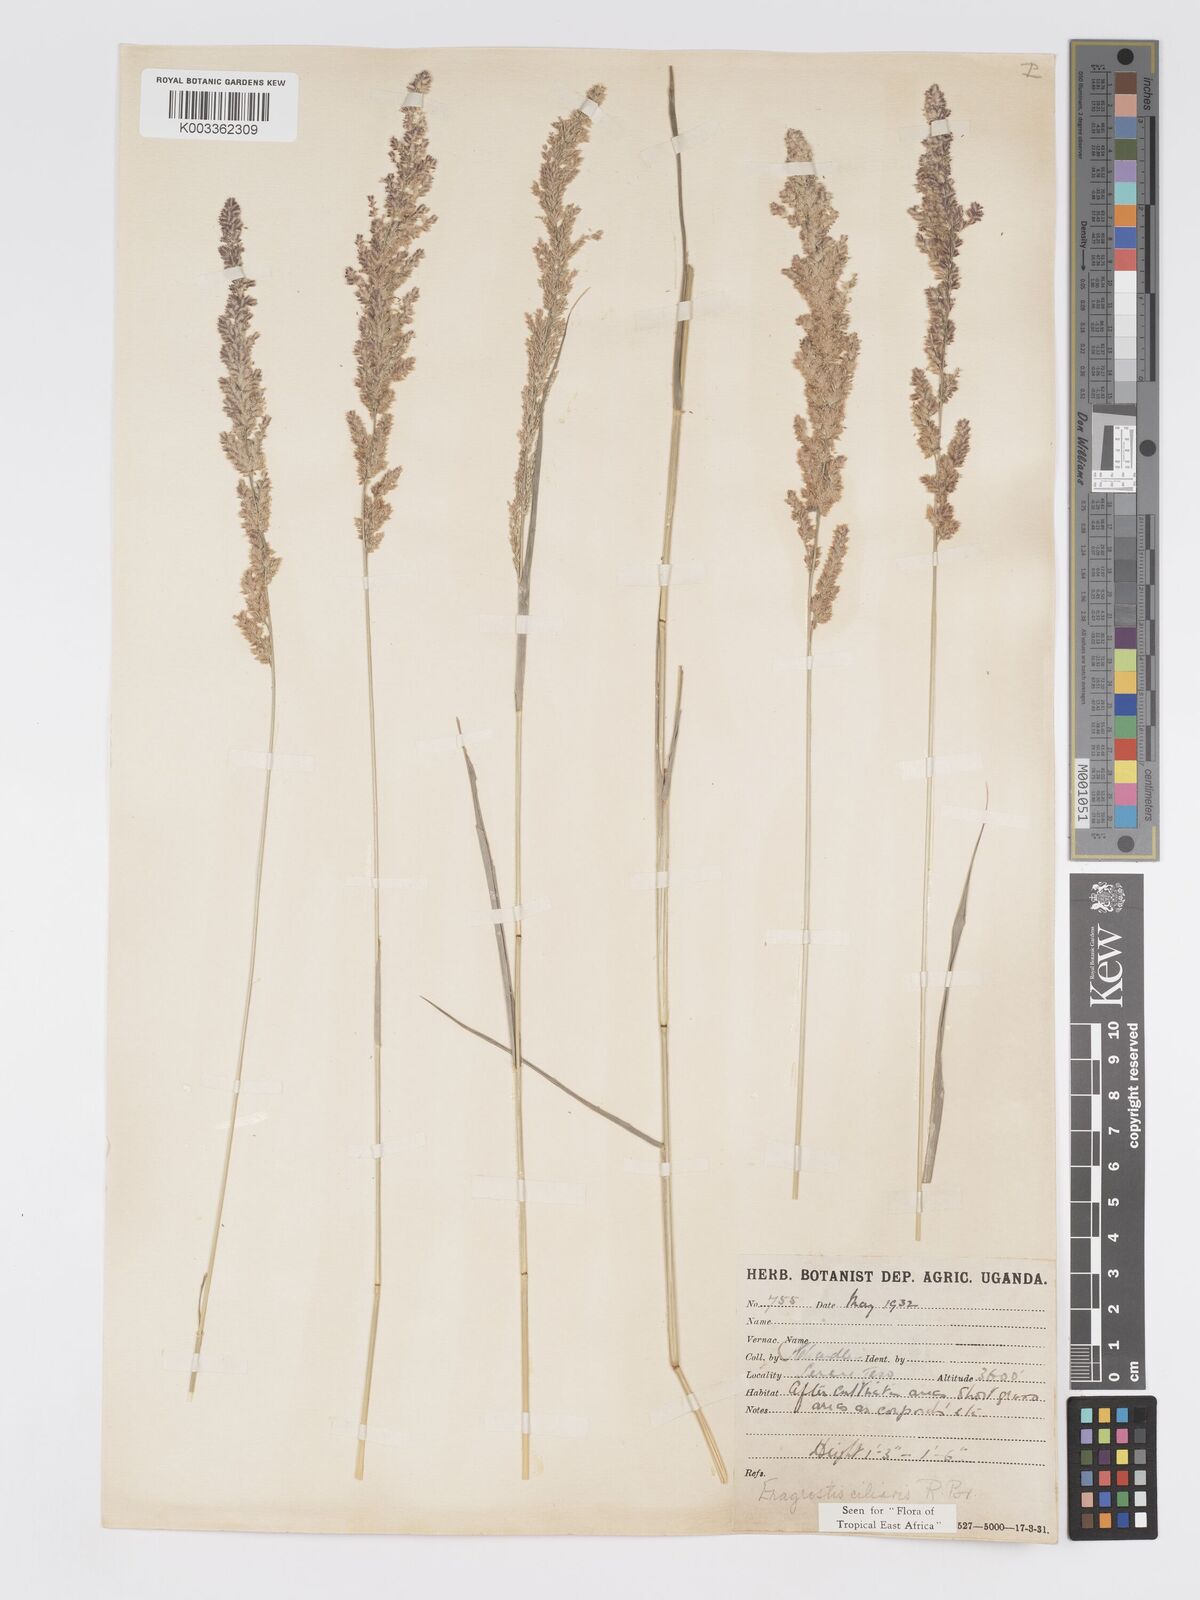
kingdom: Plantae
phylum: Tracheophyta
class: Liliopsida
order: Poales
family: Poaceae
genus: Eragrostis
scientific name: Eragrostis ciliaris
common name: Gophertail lovegrass
